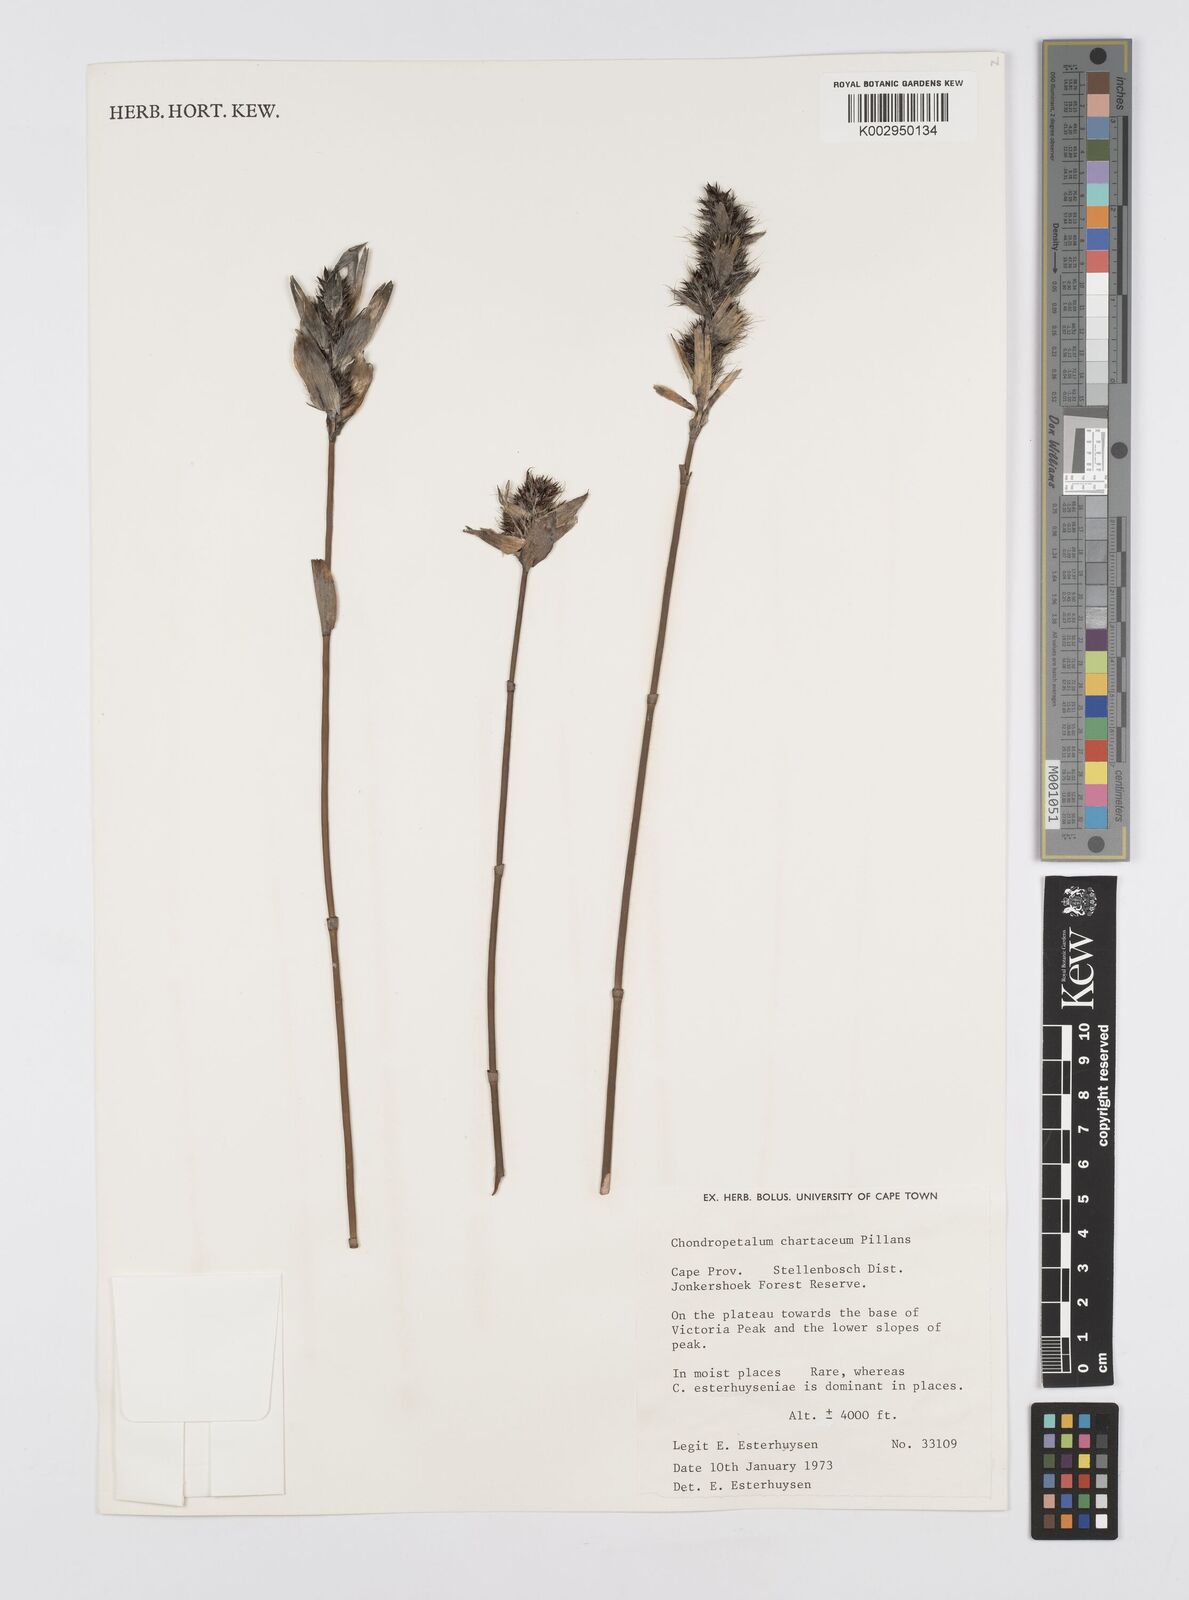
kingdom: Plantae
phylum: Tracheophyta
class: Liliopsida
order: Poales
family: Restionaceae
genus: Askidiosperma
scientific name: Askidiosperma chartaceum
